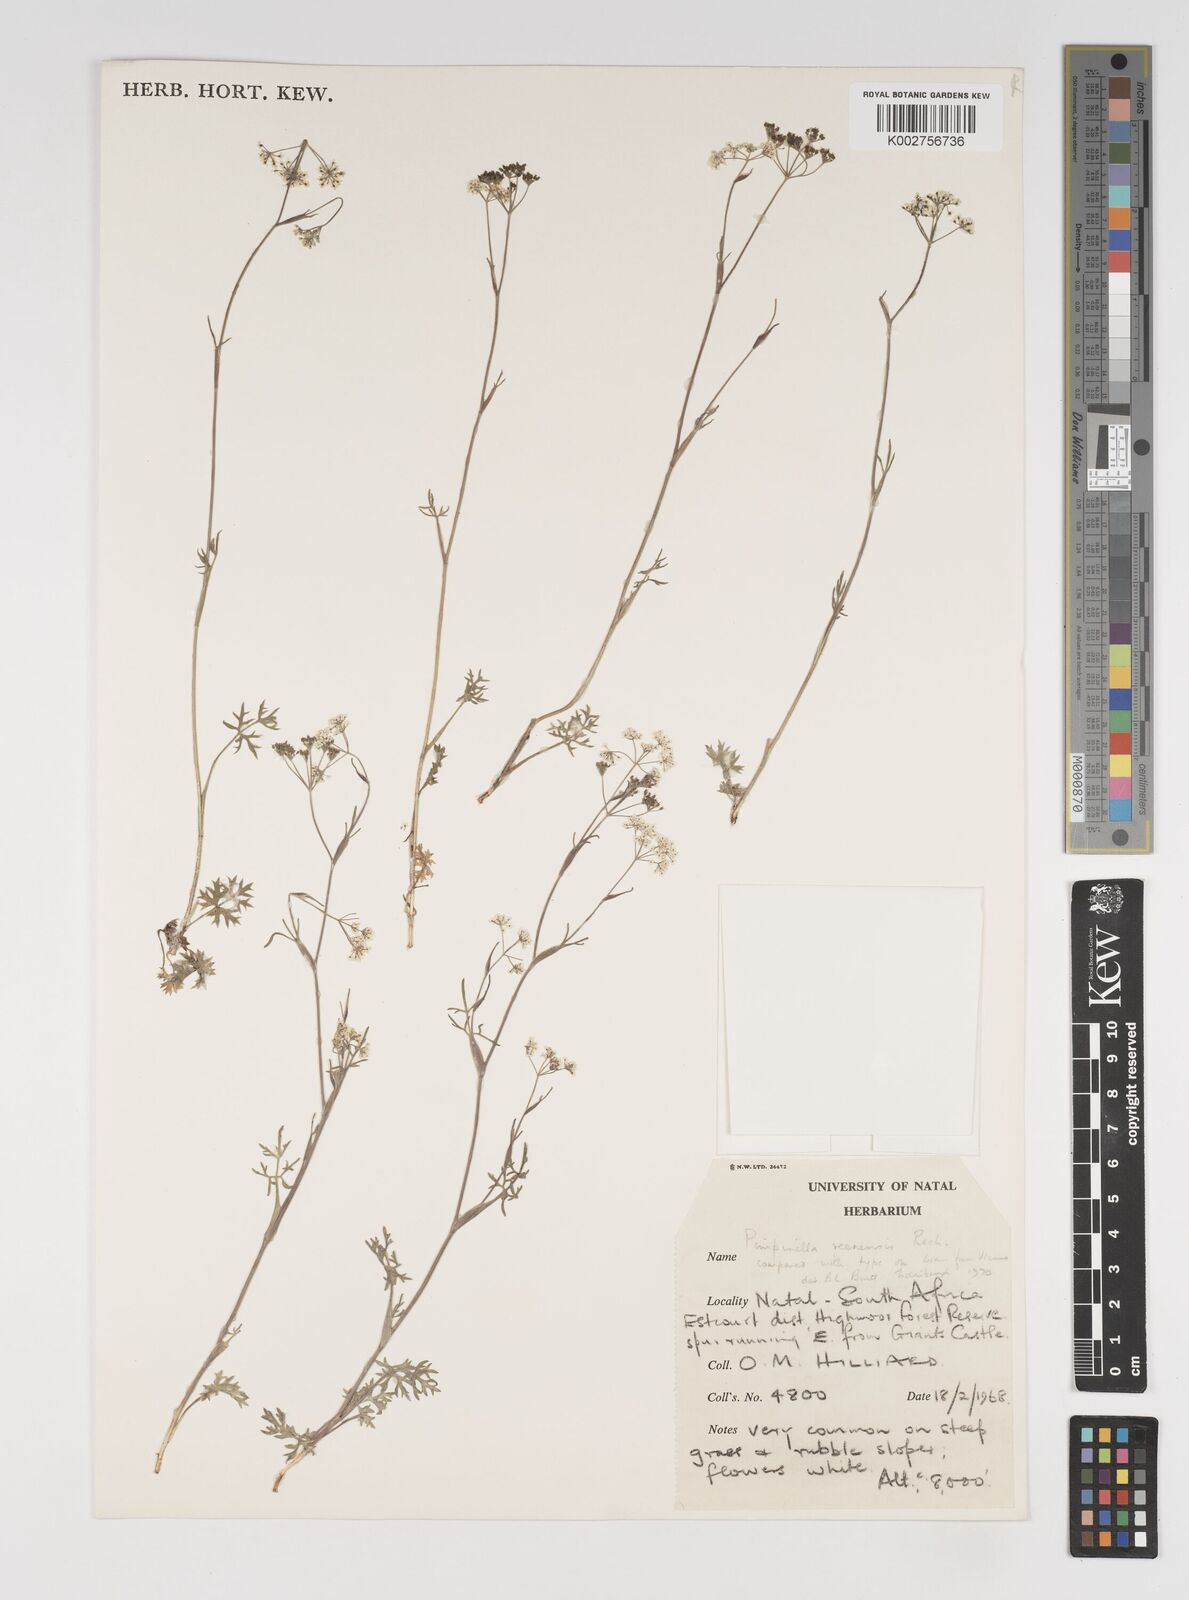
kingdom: Plantae
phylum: Tracheophyta
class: Magnoliopsida
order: Apiales
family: Apiaceae
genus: Pimpinella
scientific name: Pimpinella caffra
